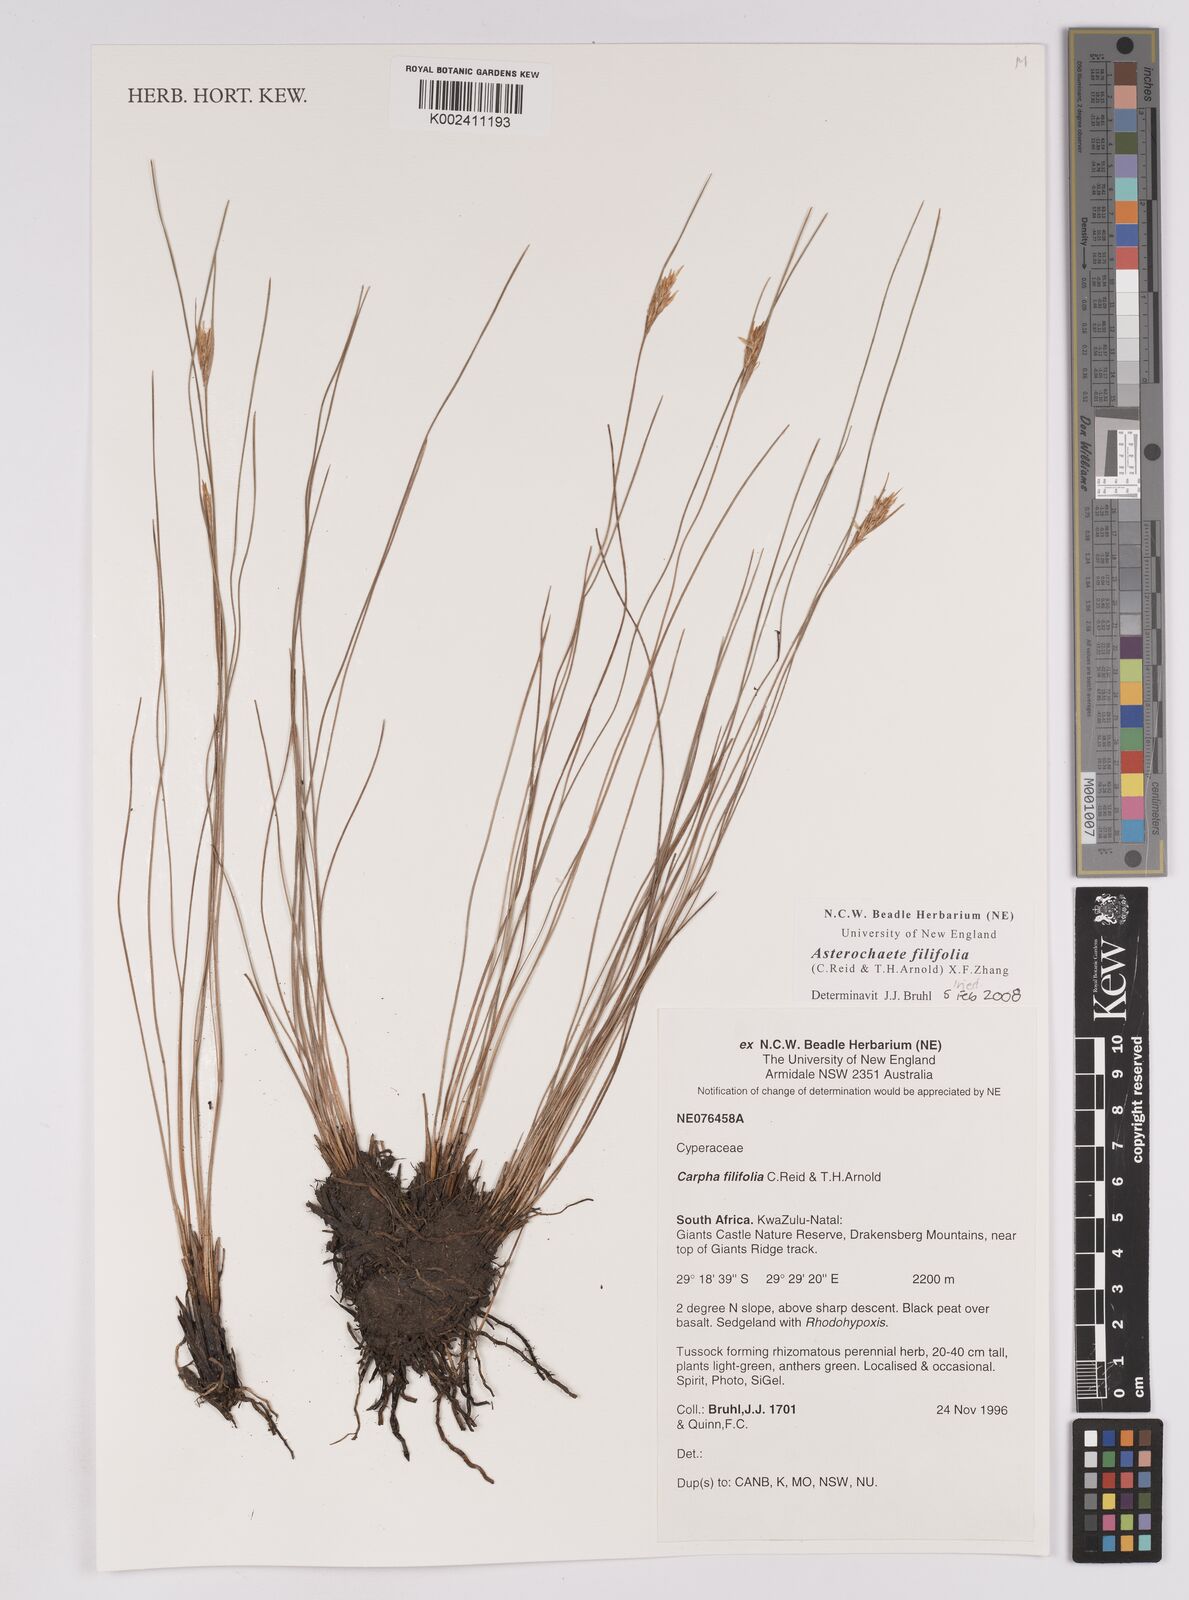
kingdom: Plantae
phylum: Tracheophyta
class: Liliopsida
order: Poales
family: Cyperaceae
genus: Carpha
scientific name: Carpha filifolia
